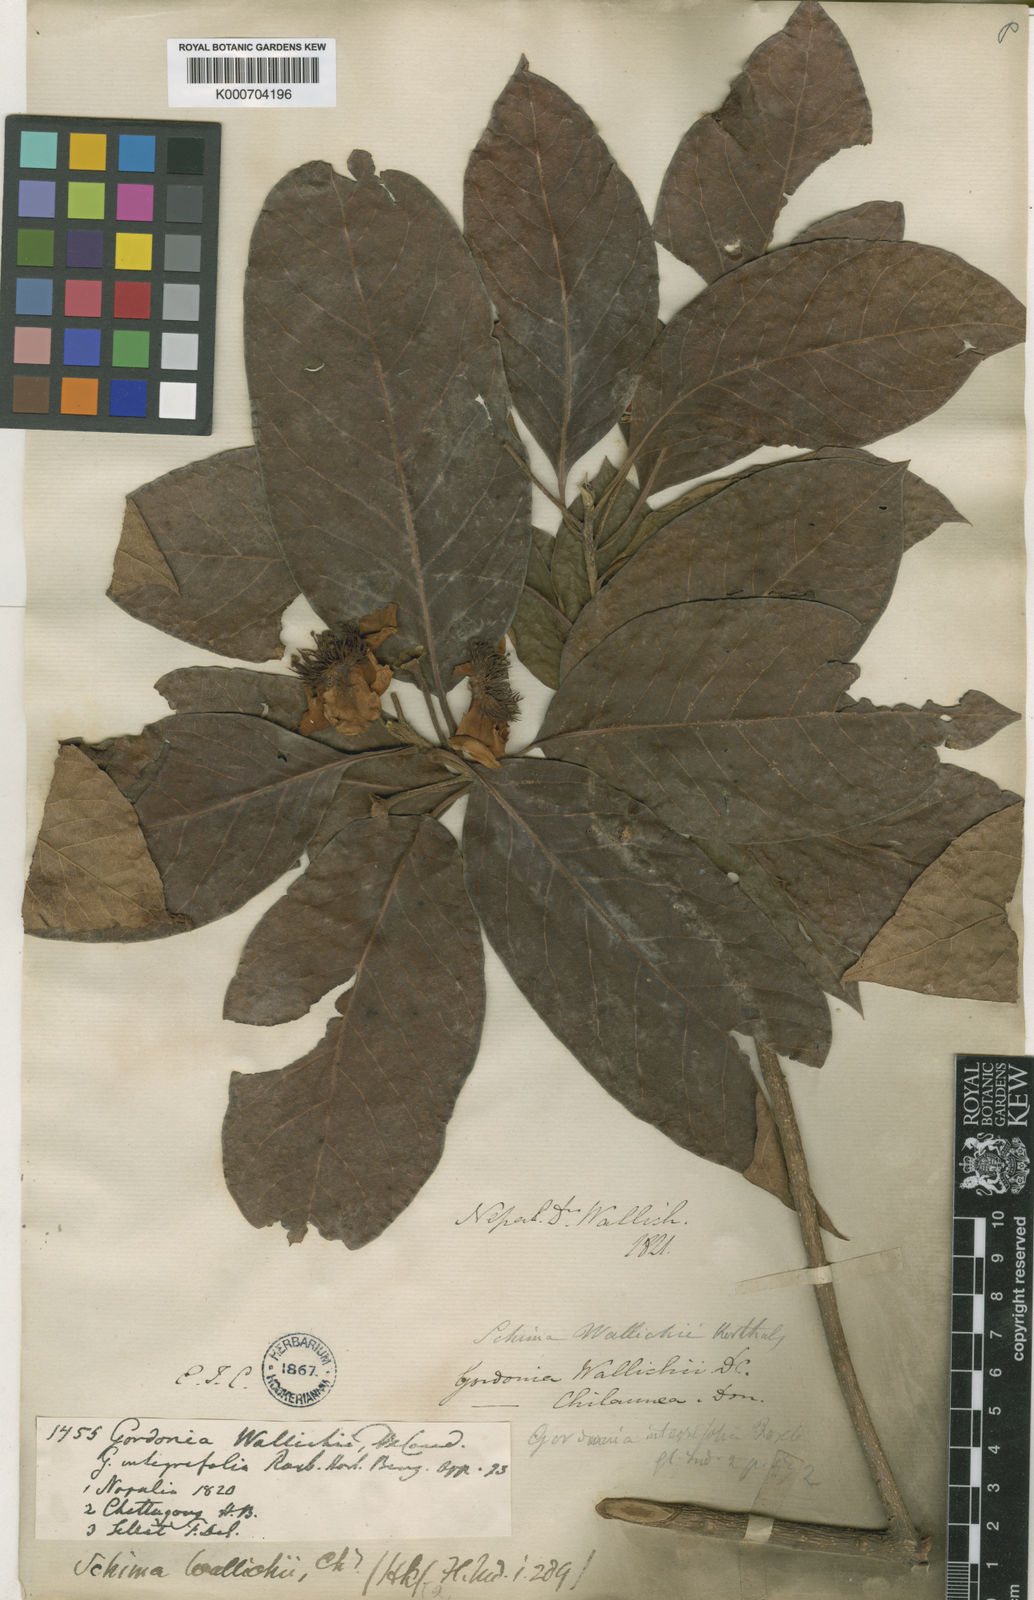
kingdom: Plantae
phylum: Tracheophyta
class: Magnoliopsida
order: Ericales
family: Theaceae
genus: Schima
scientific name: Schima
